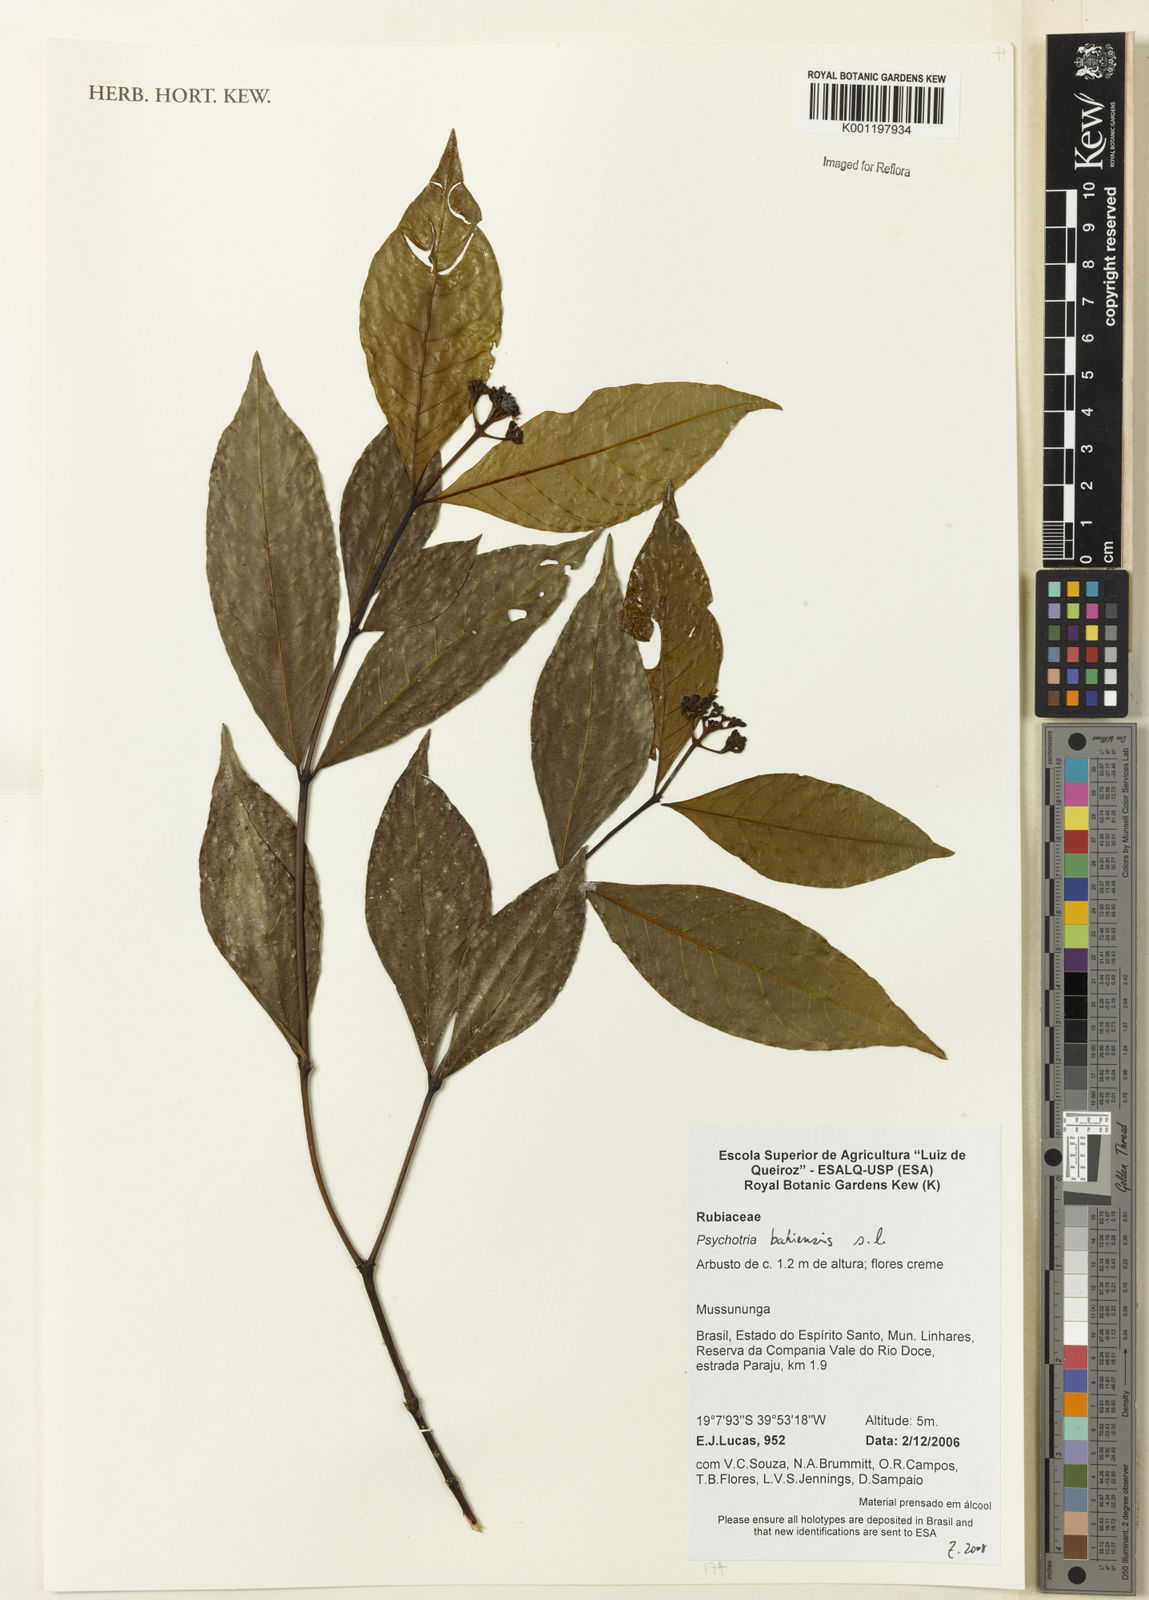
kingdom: Plantae
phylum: Tracheophyta
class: Magnoliopsida
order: Gentianales
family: Rubiaceae
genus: Psychotria
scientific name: Psychotria bahiensis
